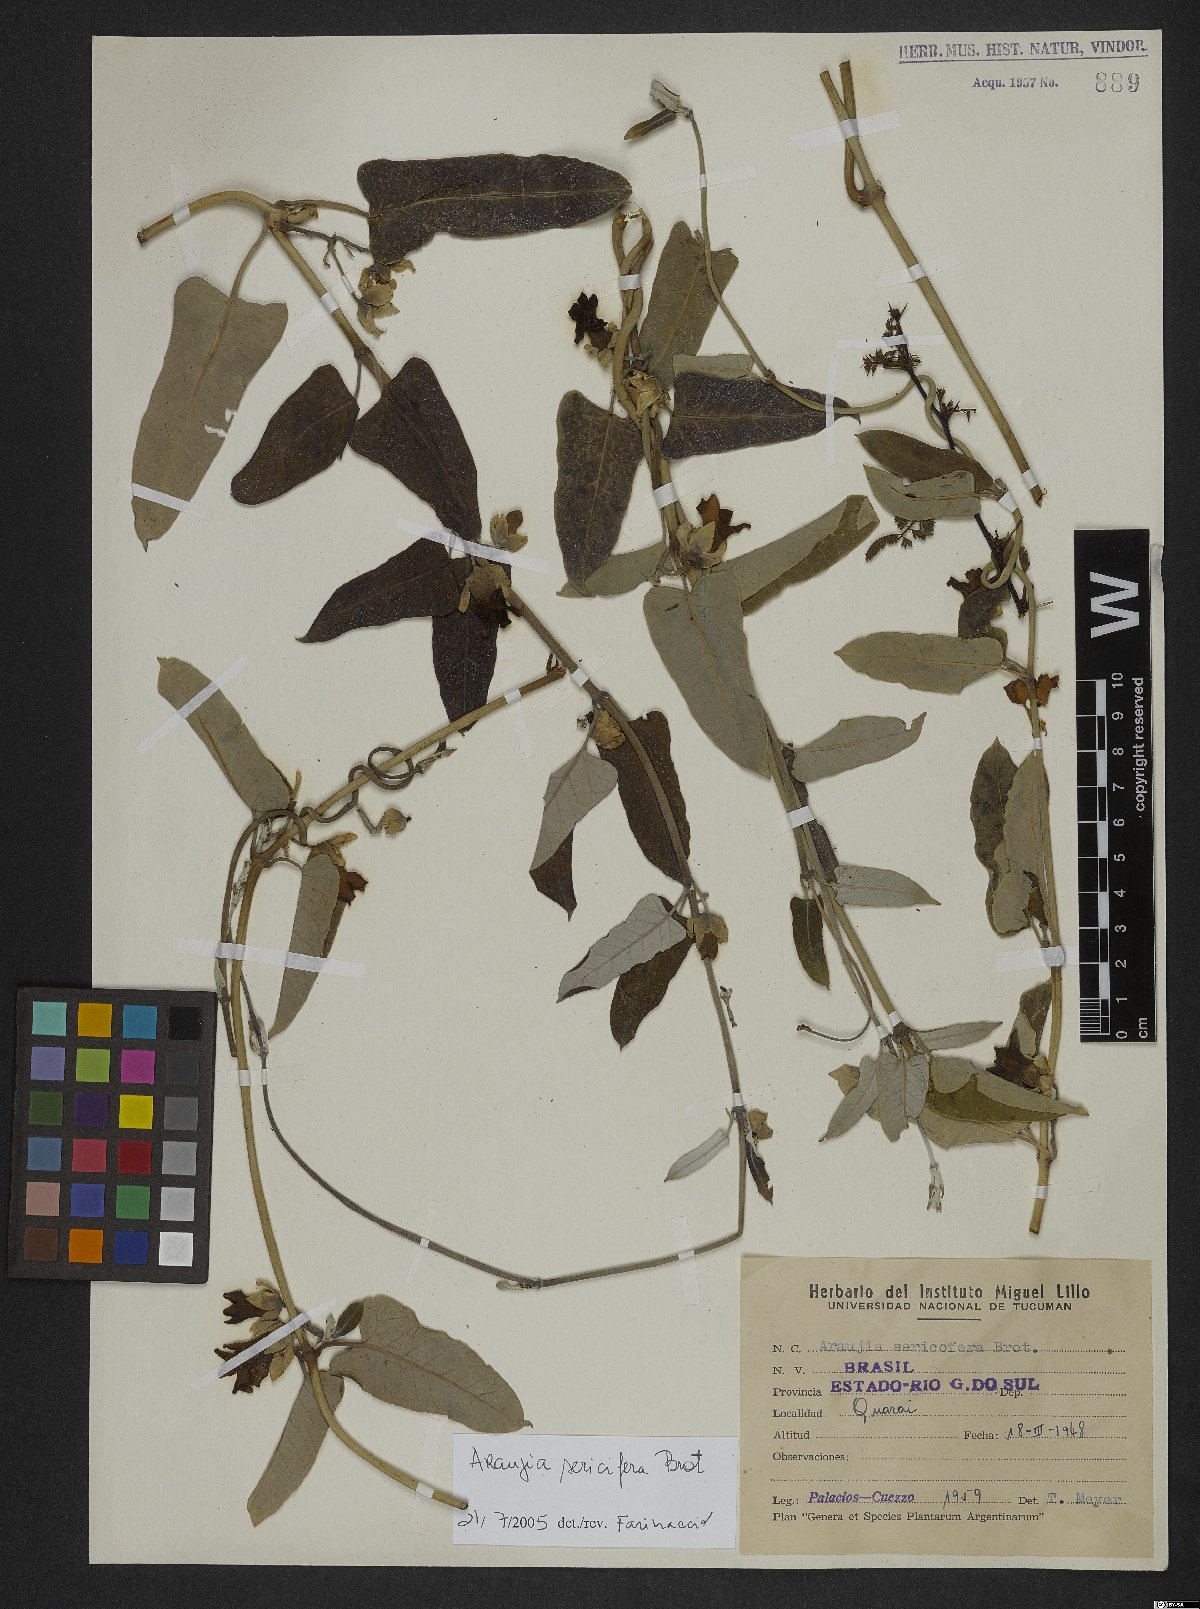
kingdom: Plantae
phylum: Tracheophyta
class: Magnoliopsida
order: Gentianales
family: Apocynaceae
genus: Araujia
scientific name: Araujia sericifera
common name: White bladderflower
